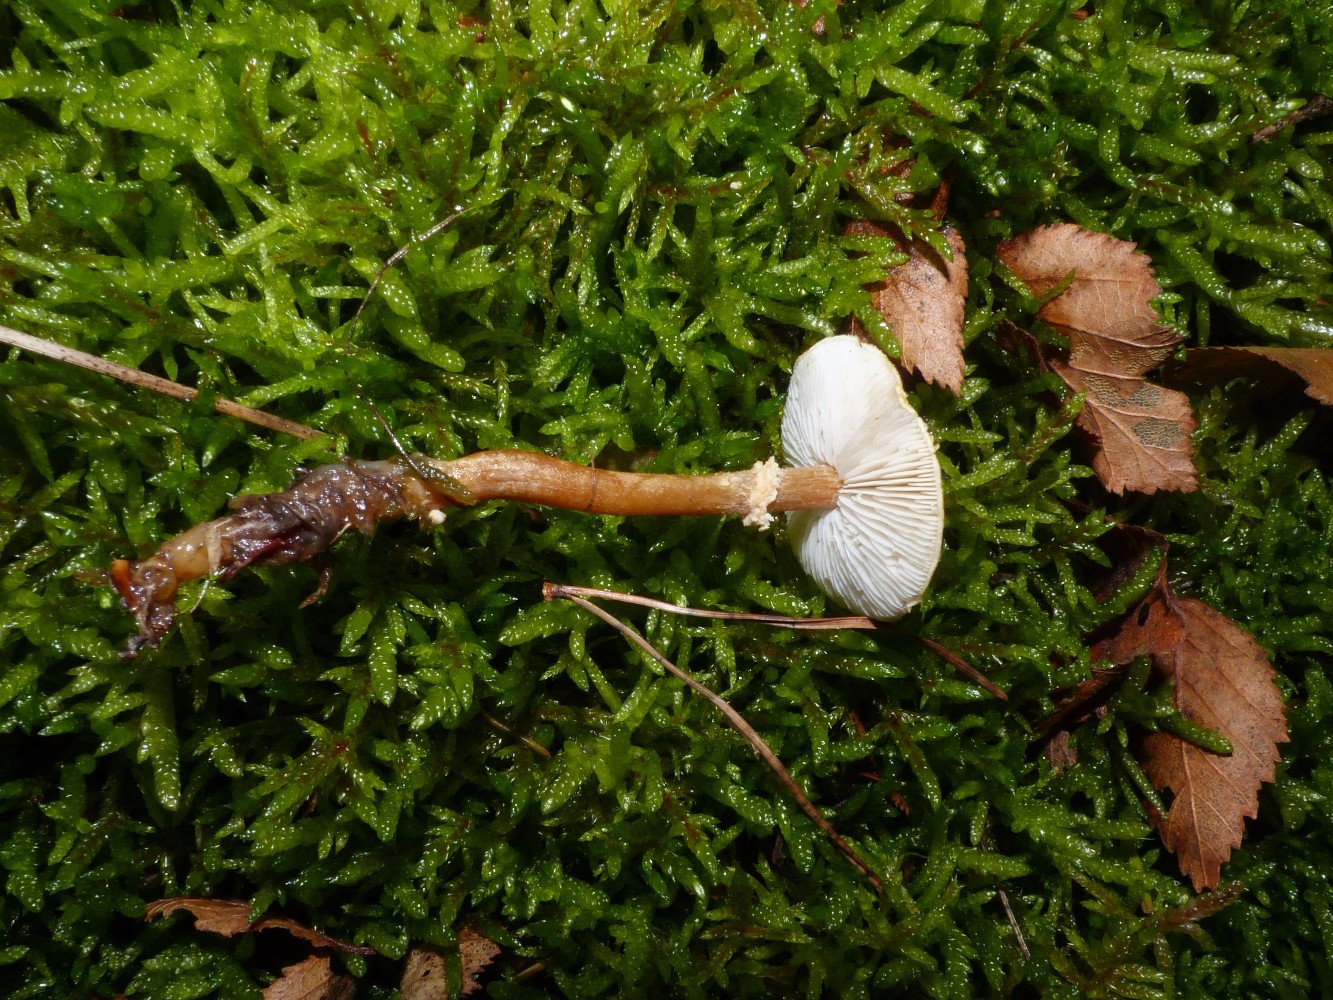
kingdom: Fungi
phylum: Basidiomycota
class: Agaricomycetes
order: Agaricales
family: Tricholomataceae
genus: Cystoderma
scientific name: Cystoderma amianthinum
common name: okkergul grynhat
